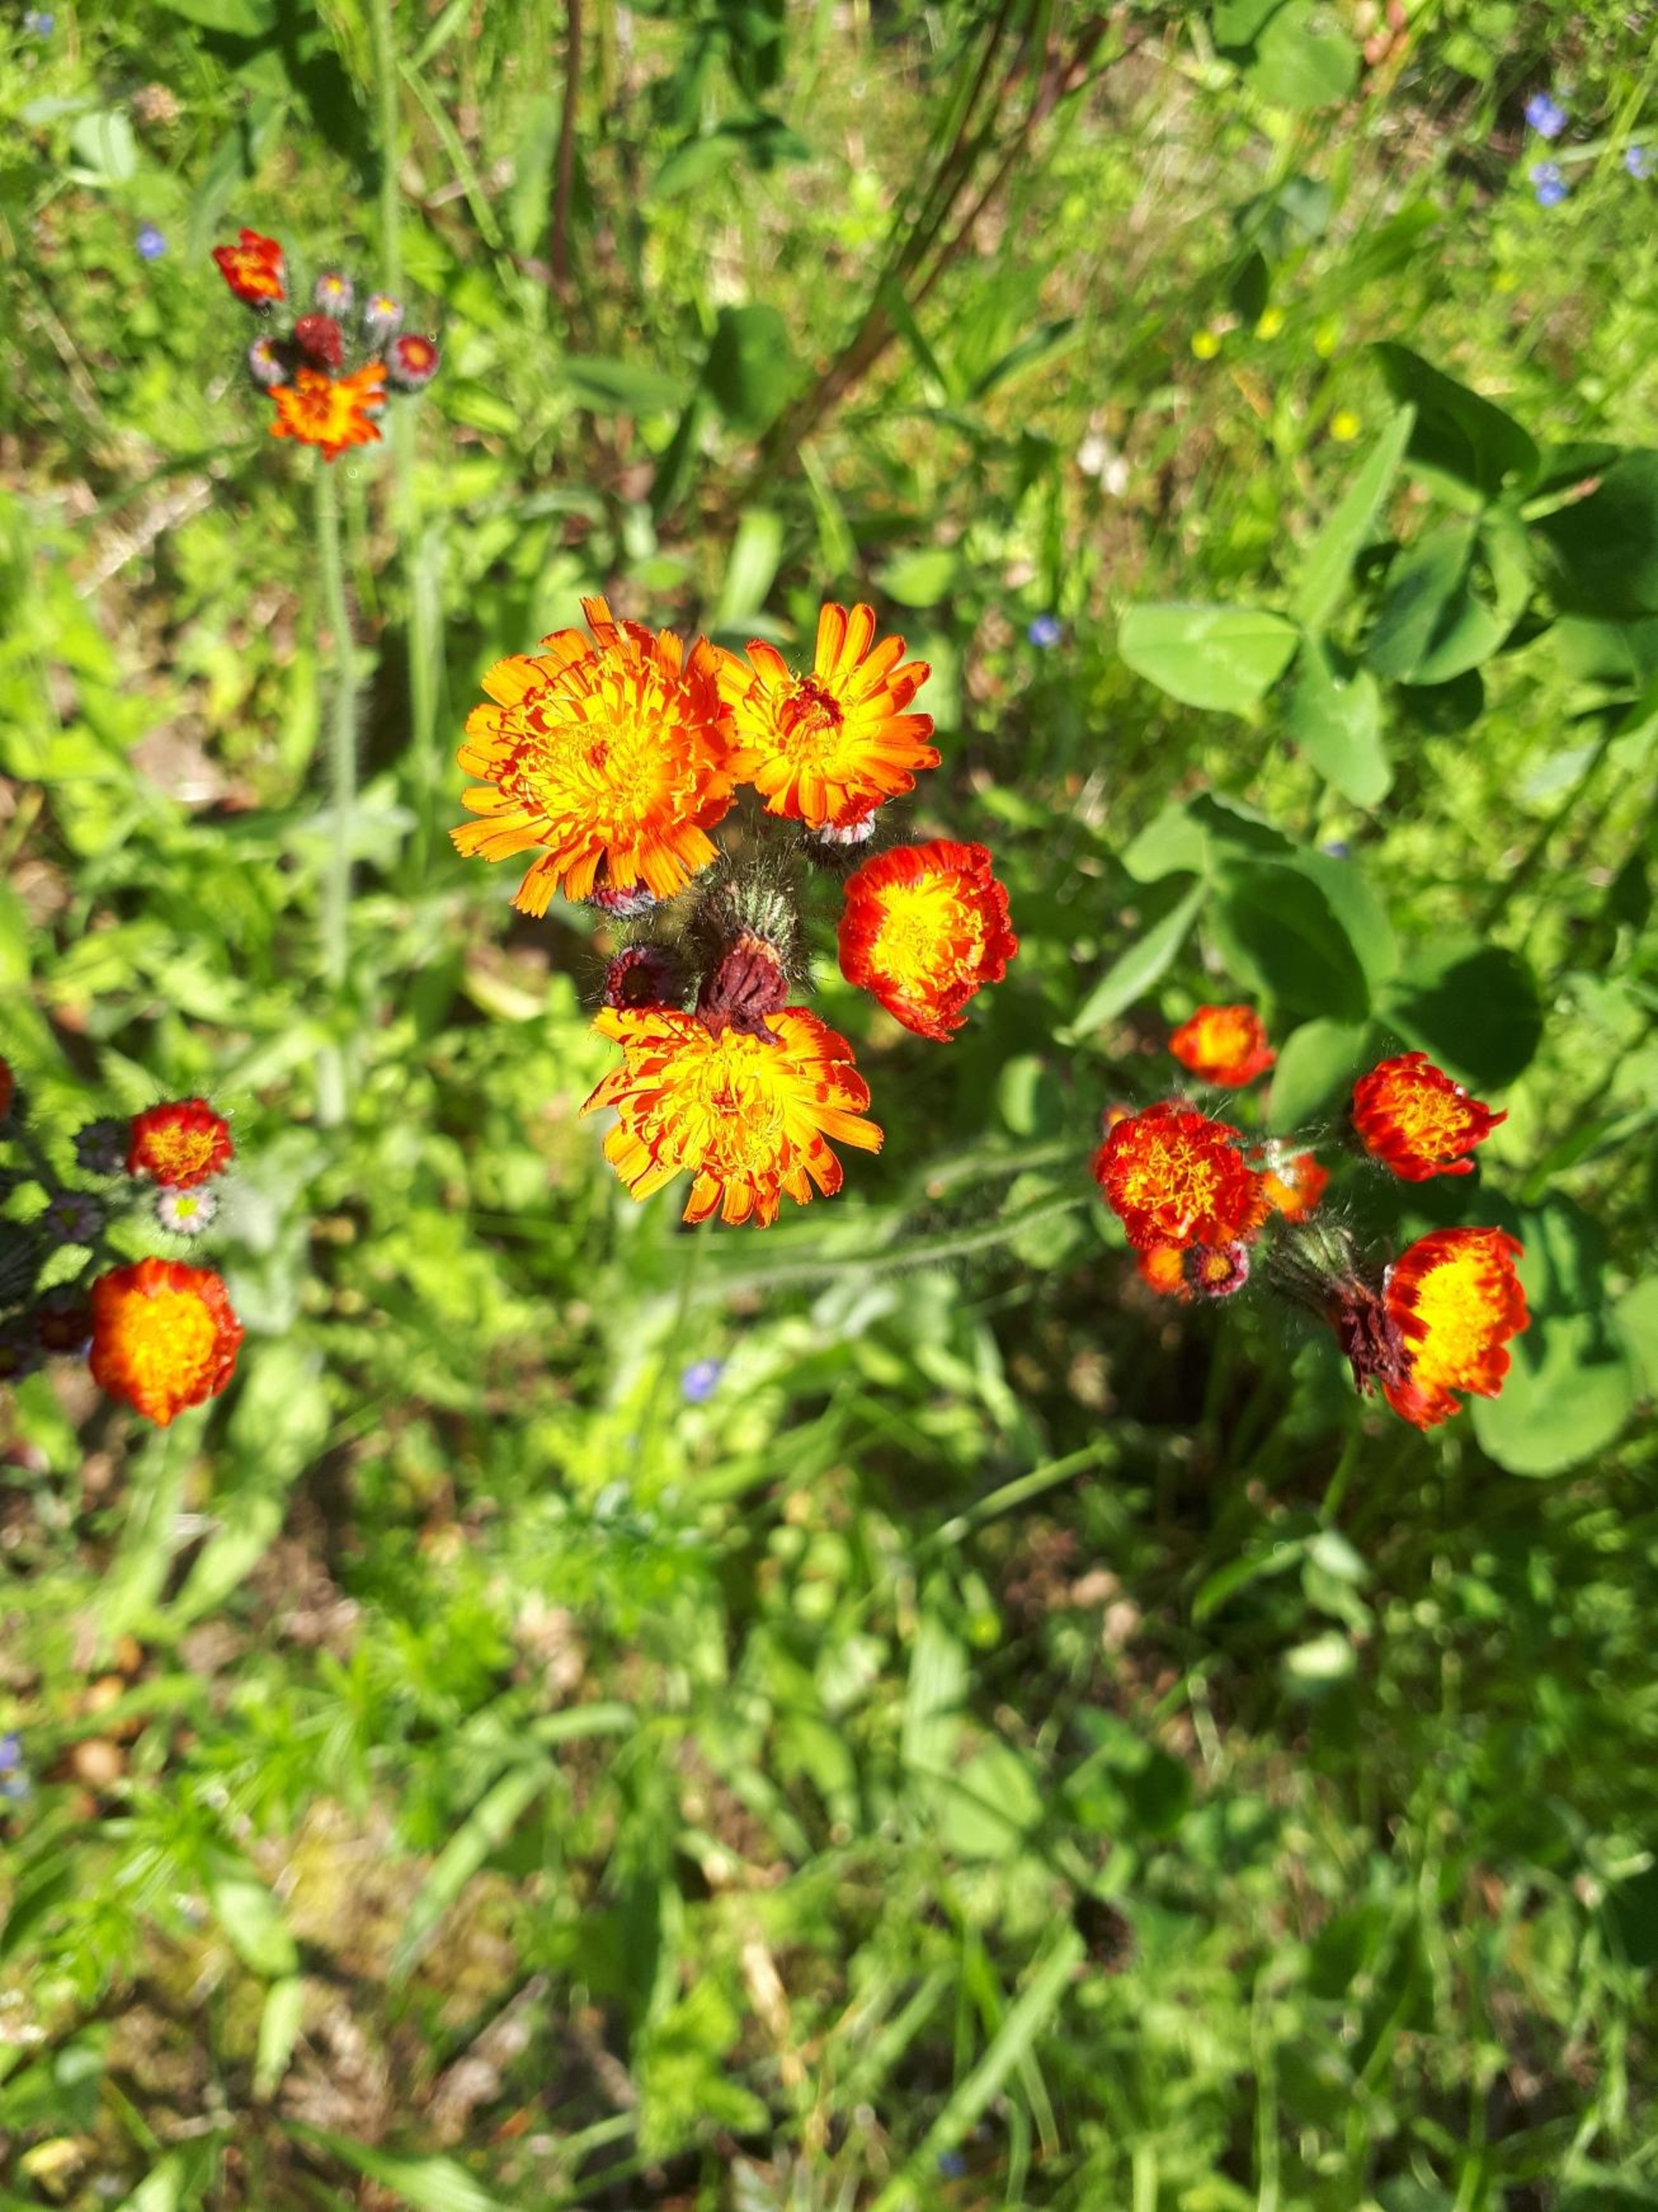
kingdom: Plantae
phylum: Tracheophyta
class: Magnoliopsida
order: Asterales
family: Asteraceae
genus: Pilosella
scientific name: Pilosella aurantiaca
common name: Pomerans-høgeurt
